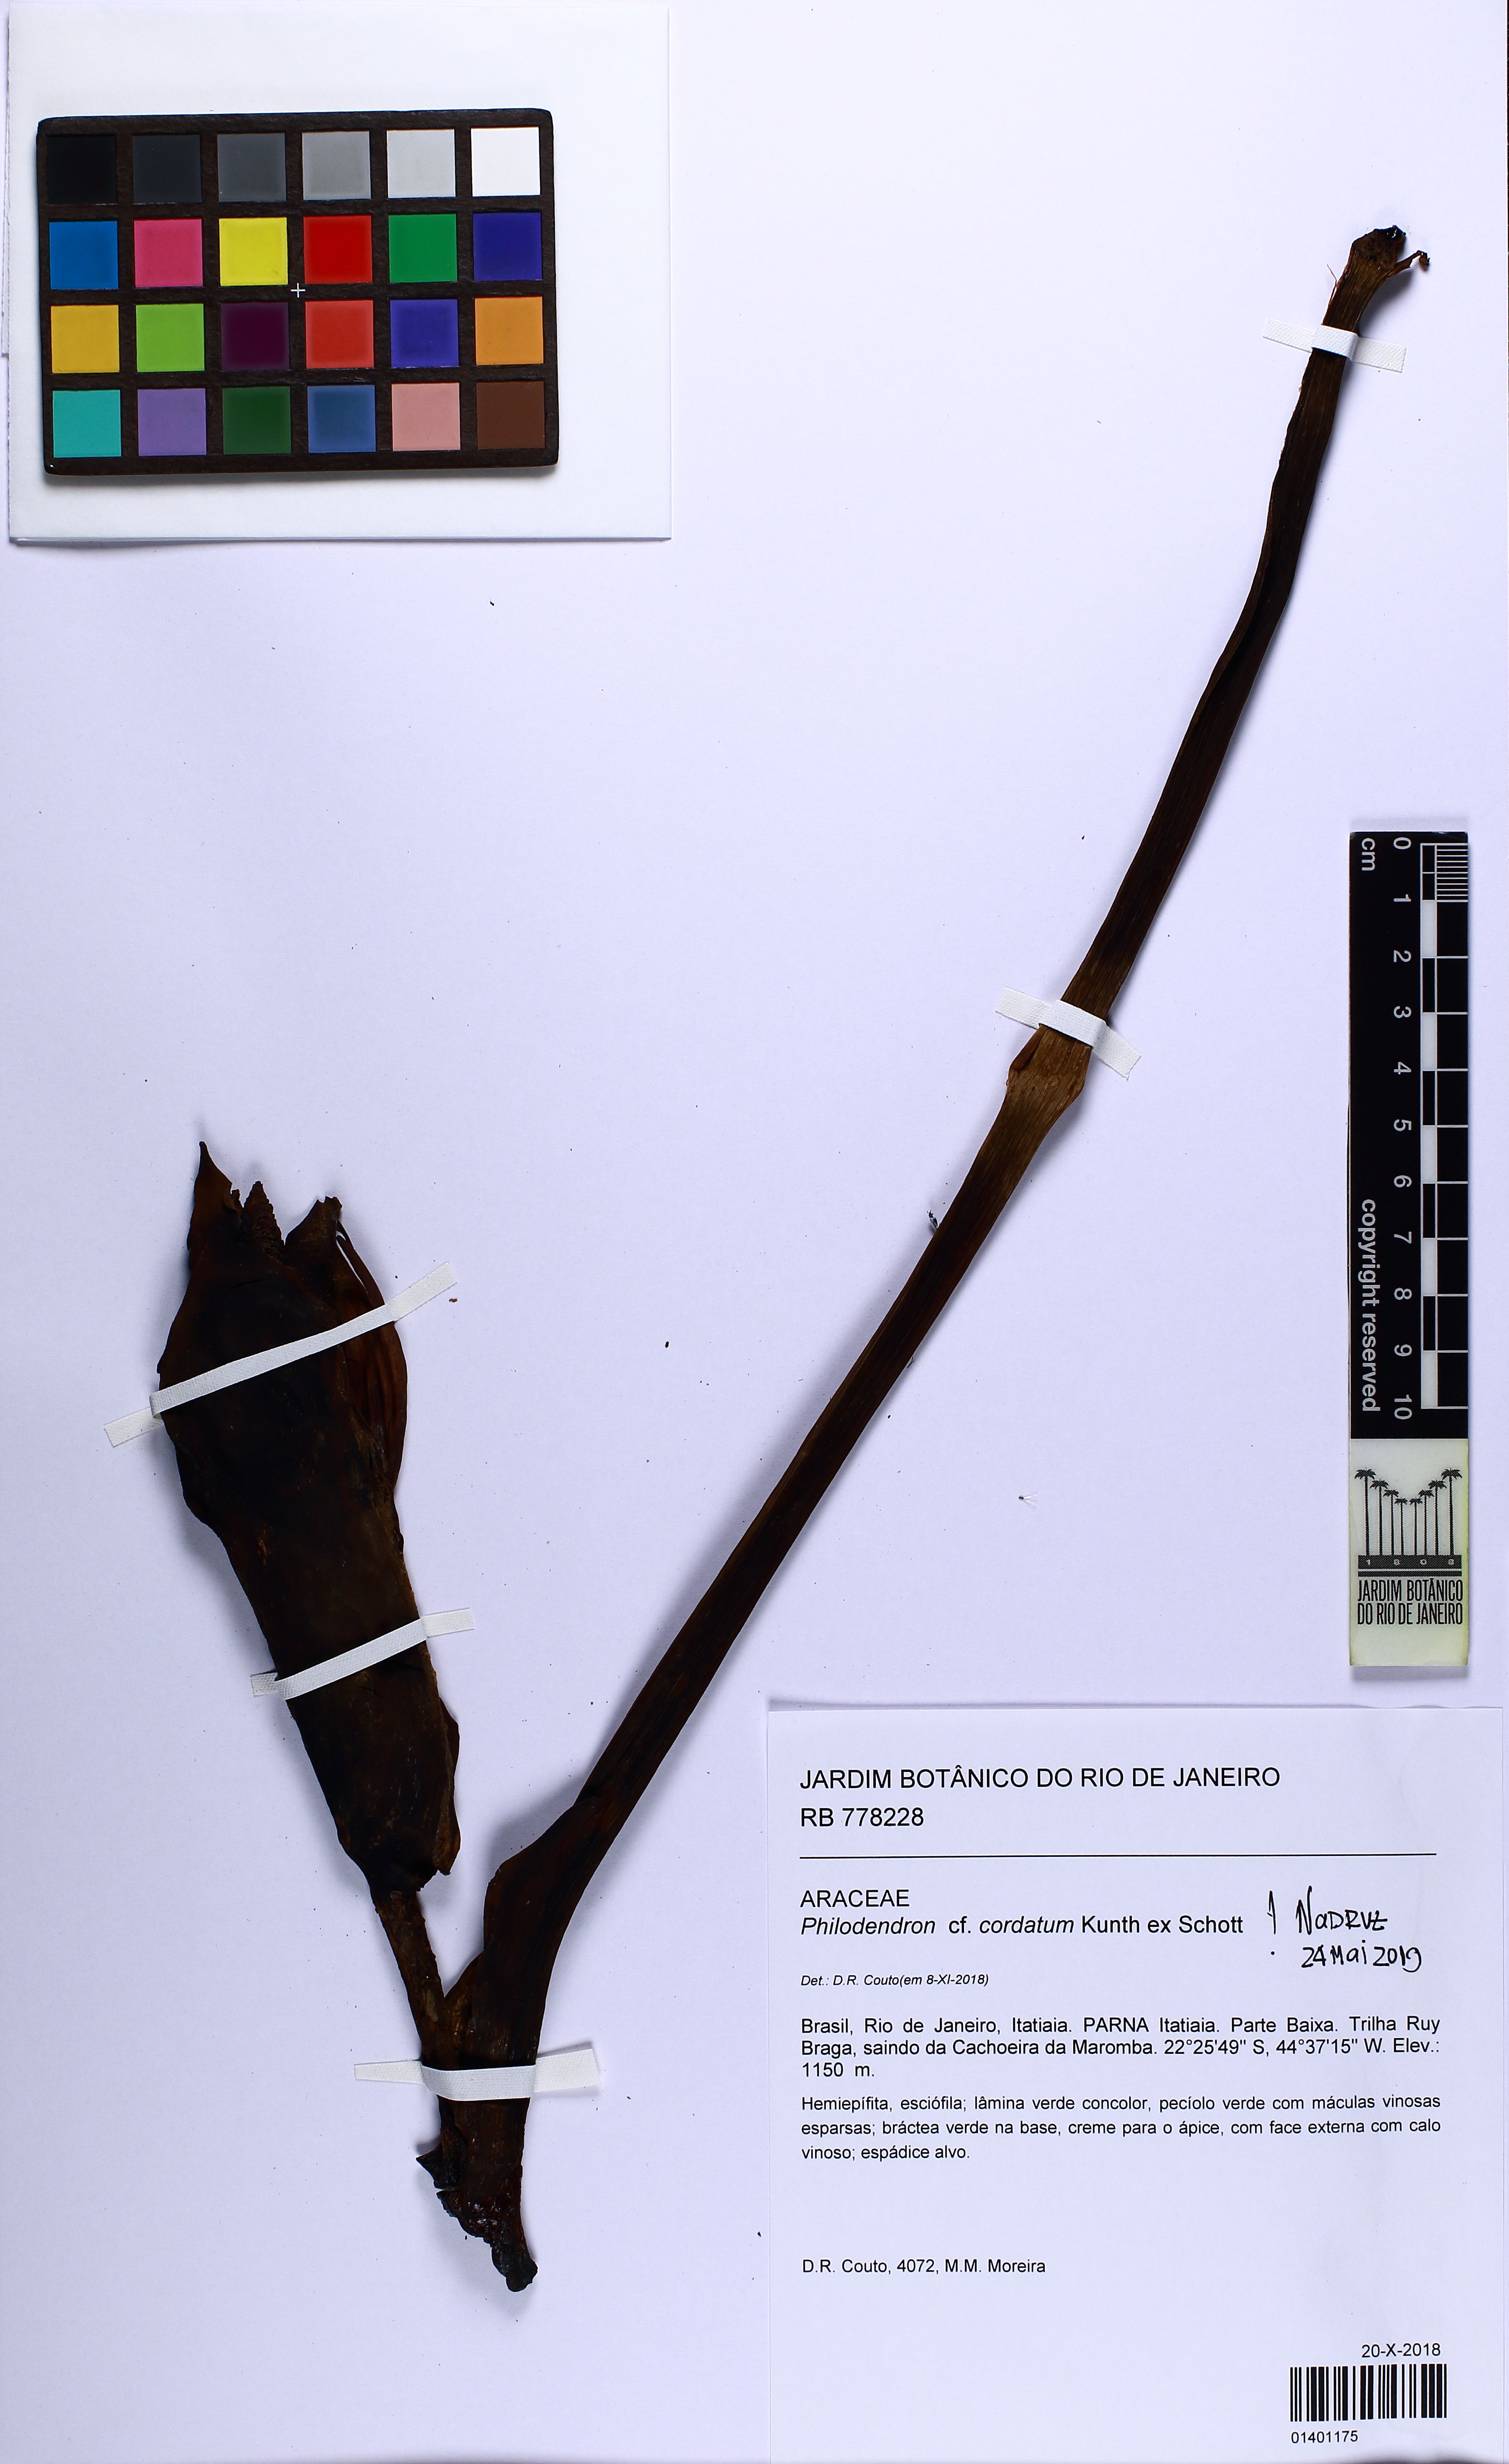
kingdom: Plantae
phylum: Tracheophyta
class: Liliopsida
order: Alismatales
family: Araceae
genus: Philodendron
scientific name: Philodendron cordatum
